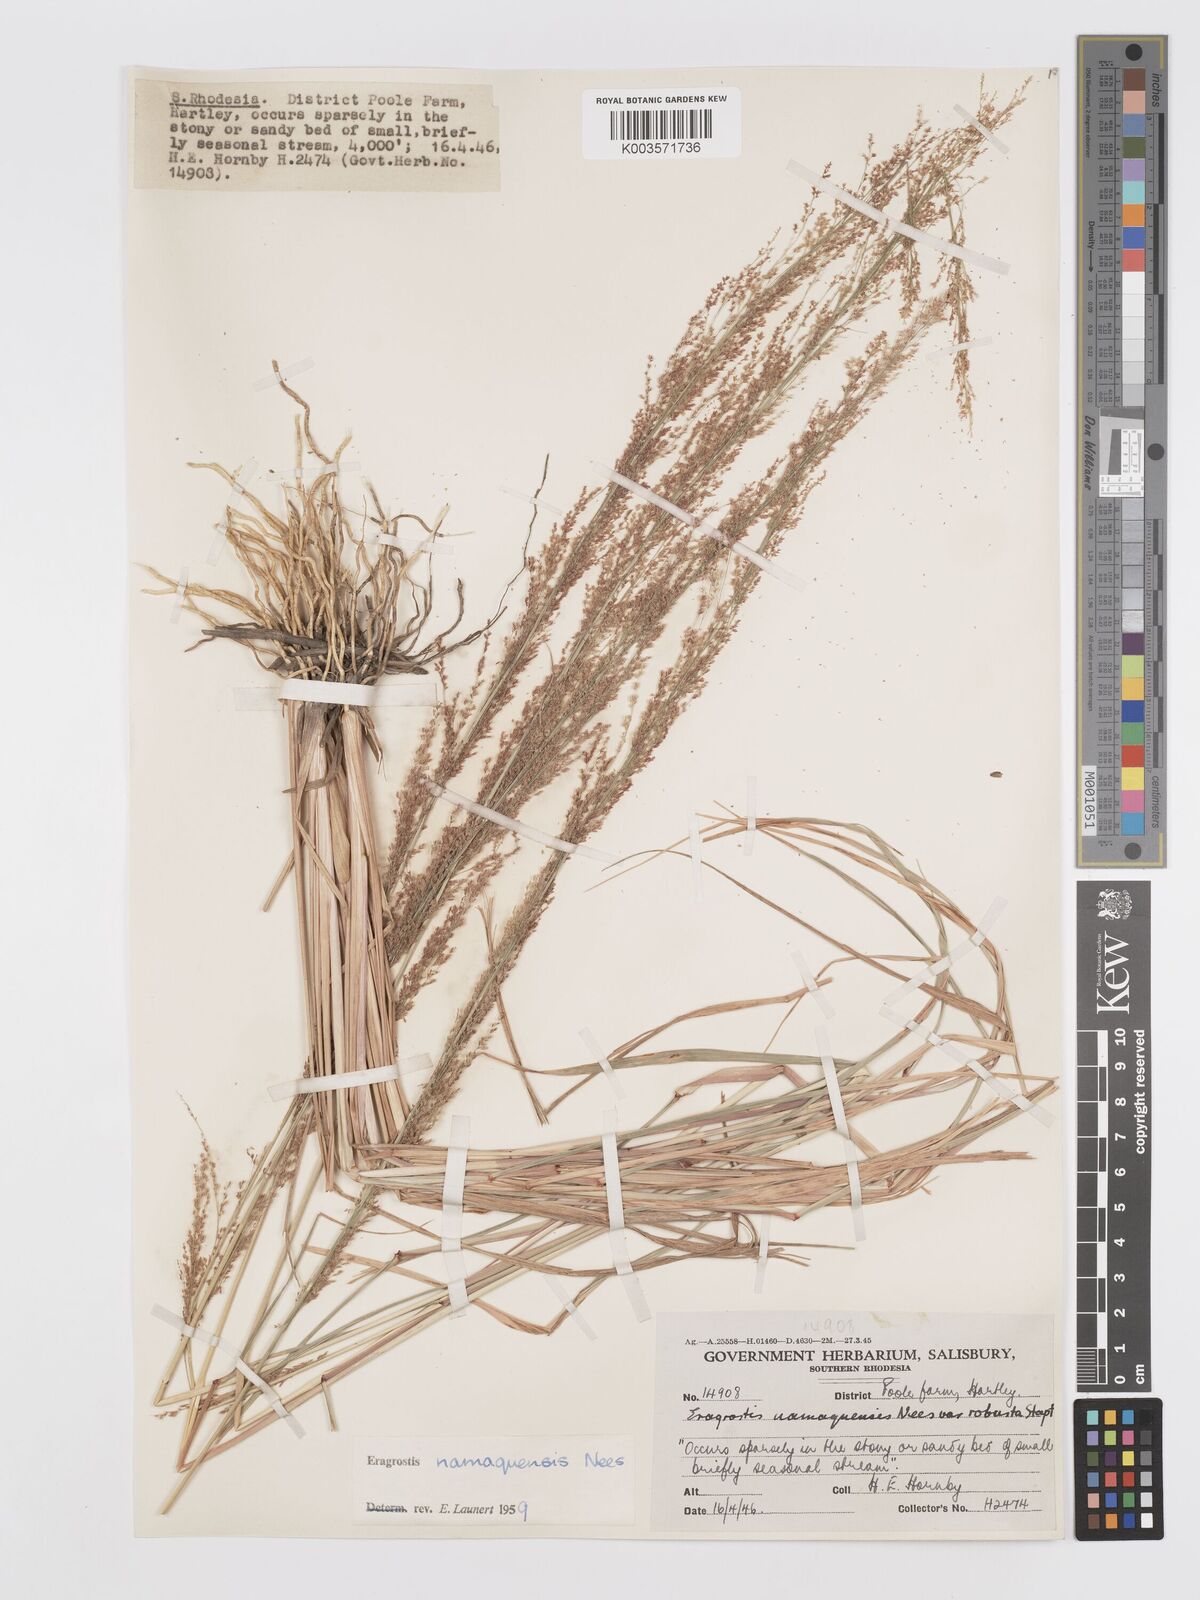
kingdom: Plantae
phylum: Tracheophyta
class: Liliopsida
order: Poales
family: Poaceae
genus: Eragrostis
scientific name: Eragrostis japonica
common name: Pond lovegrass
